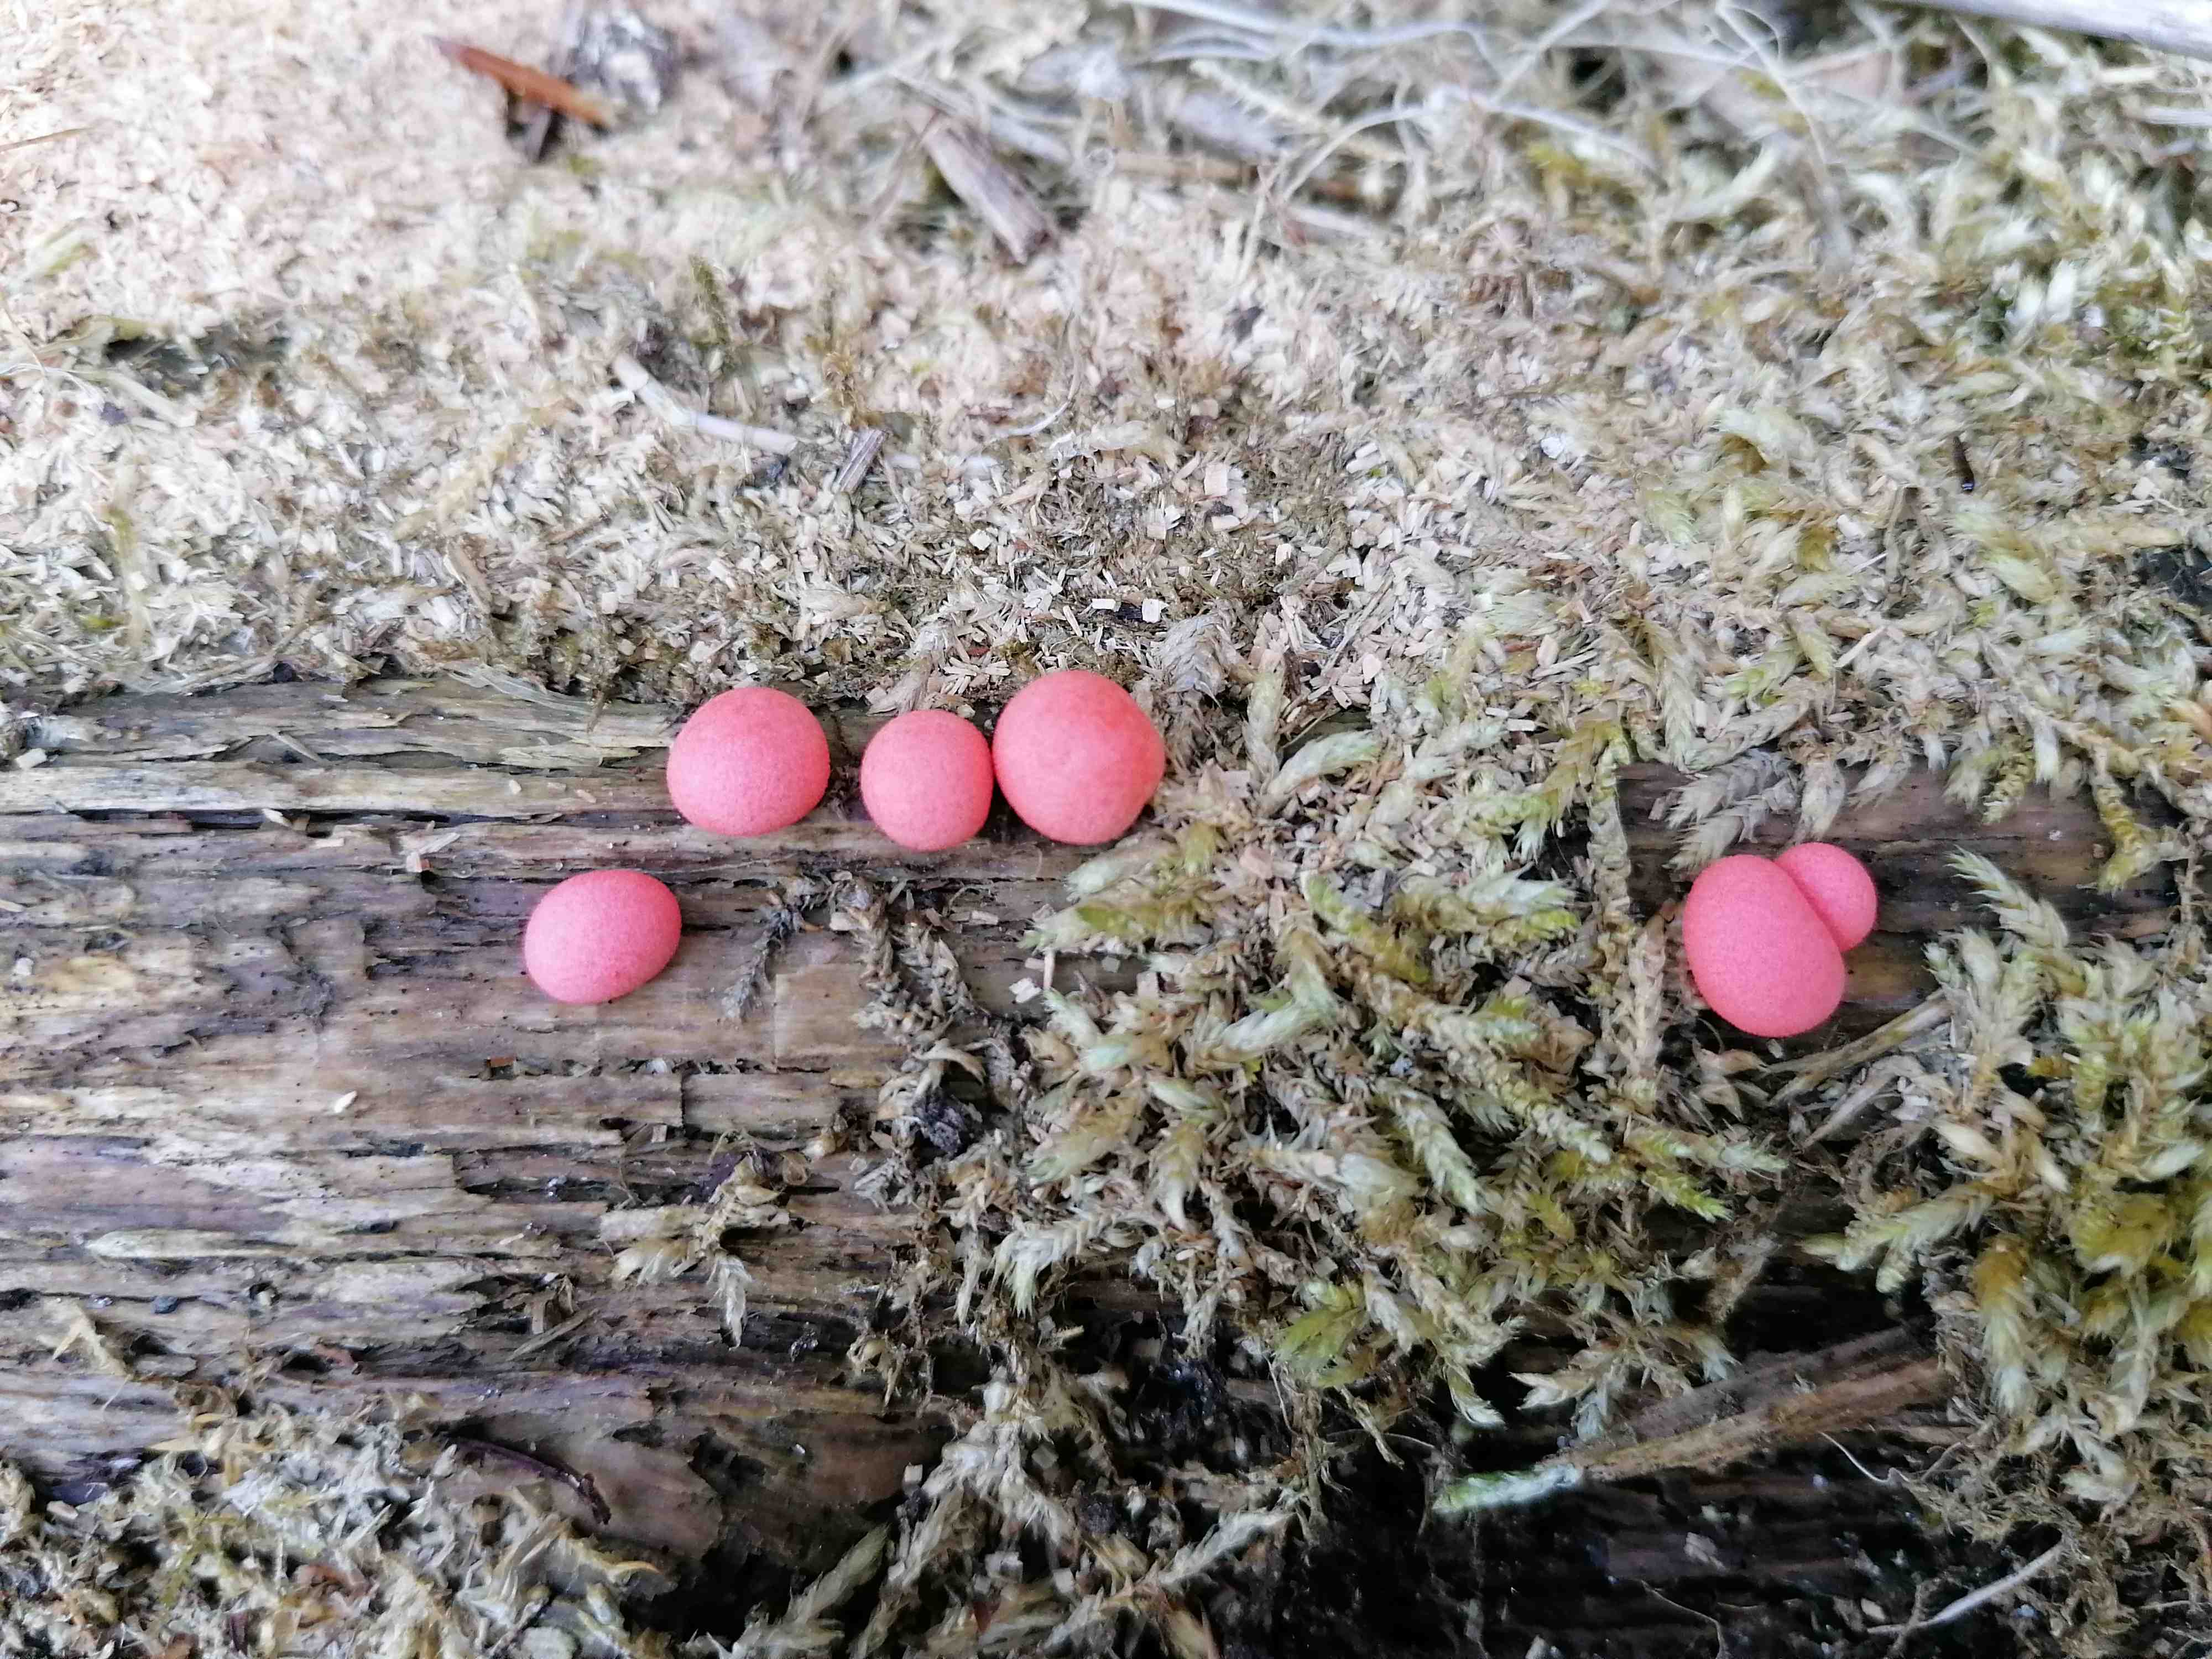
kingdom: Protozoa
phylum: Mycetozoa
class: Myxomycetes
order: Cribrariales
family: Tubiferaceae
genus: Lycogala
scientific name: Lycogala epidendrum
